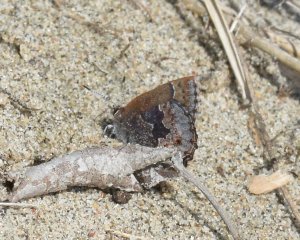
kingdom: Animalia
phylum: Arthropoda
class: Insecta
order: Lepidoptera
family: Lycaenidae
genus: Callophrys
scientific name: Callophrys polios
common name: Hoary Elfin
